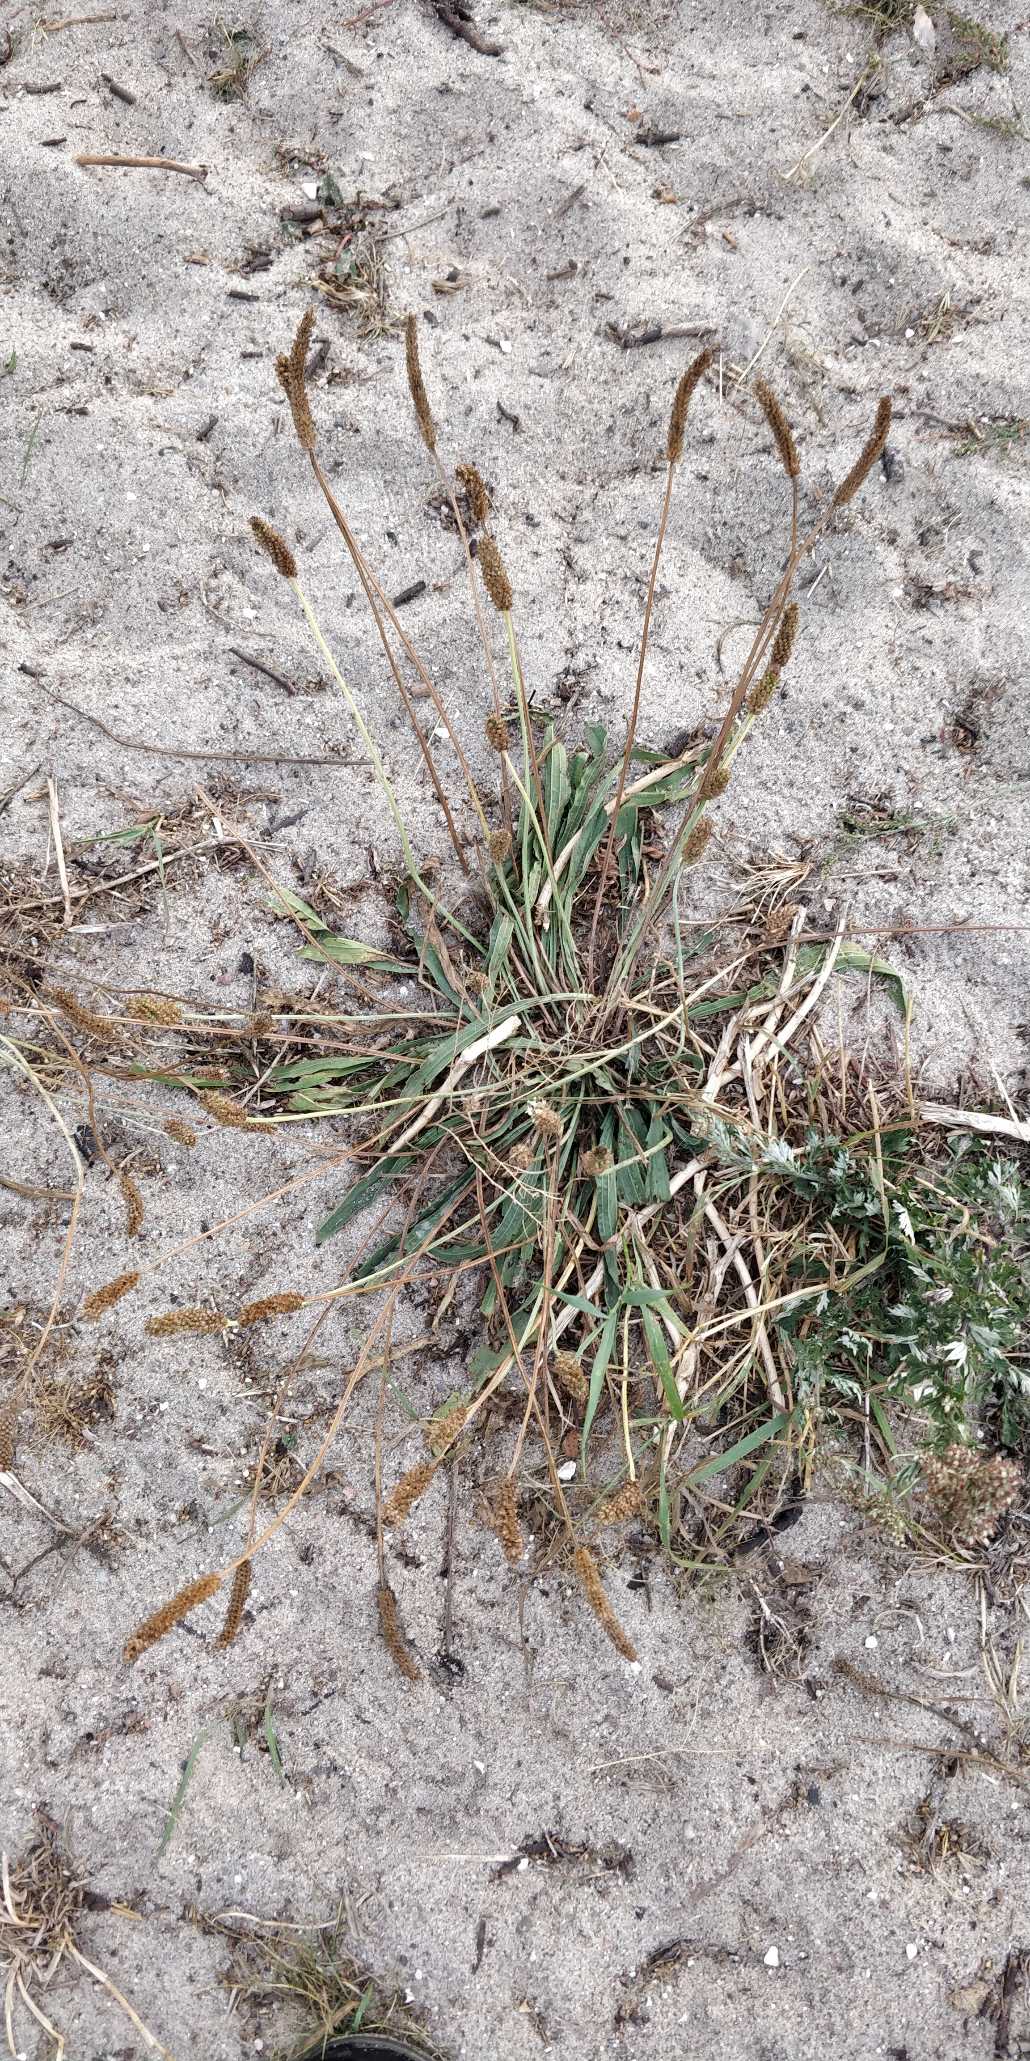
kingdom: Plantae
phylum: Tracheophyta
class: Magnoliopsida
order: Lamiales
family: Plantaginaceae
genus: Plantago
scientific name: Plantago lanceolata
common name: Lancet-vejbred
